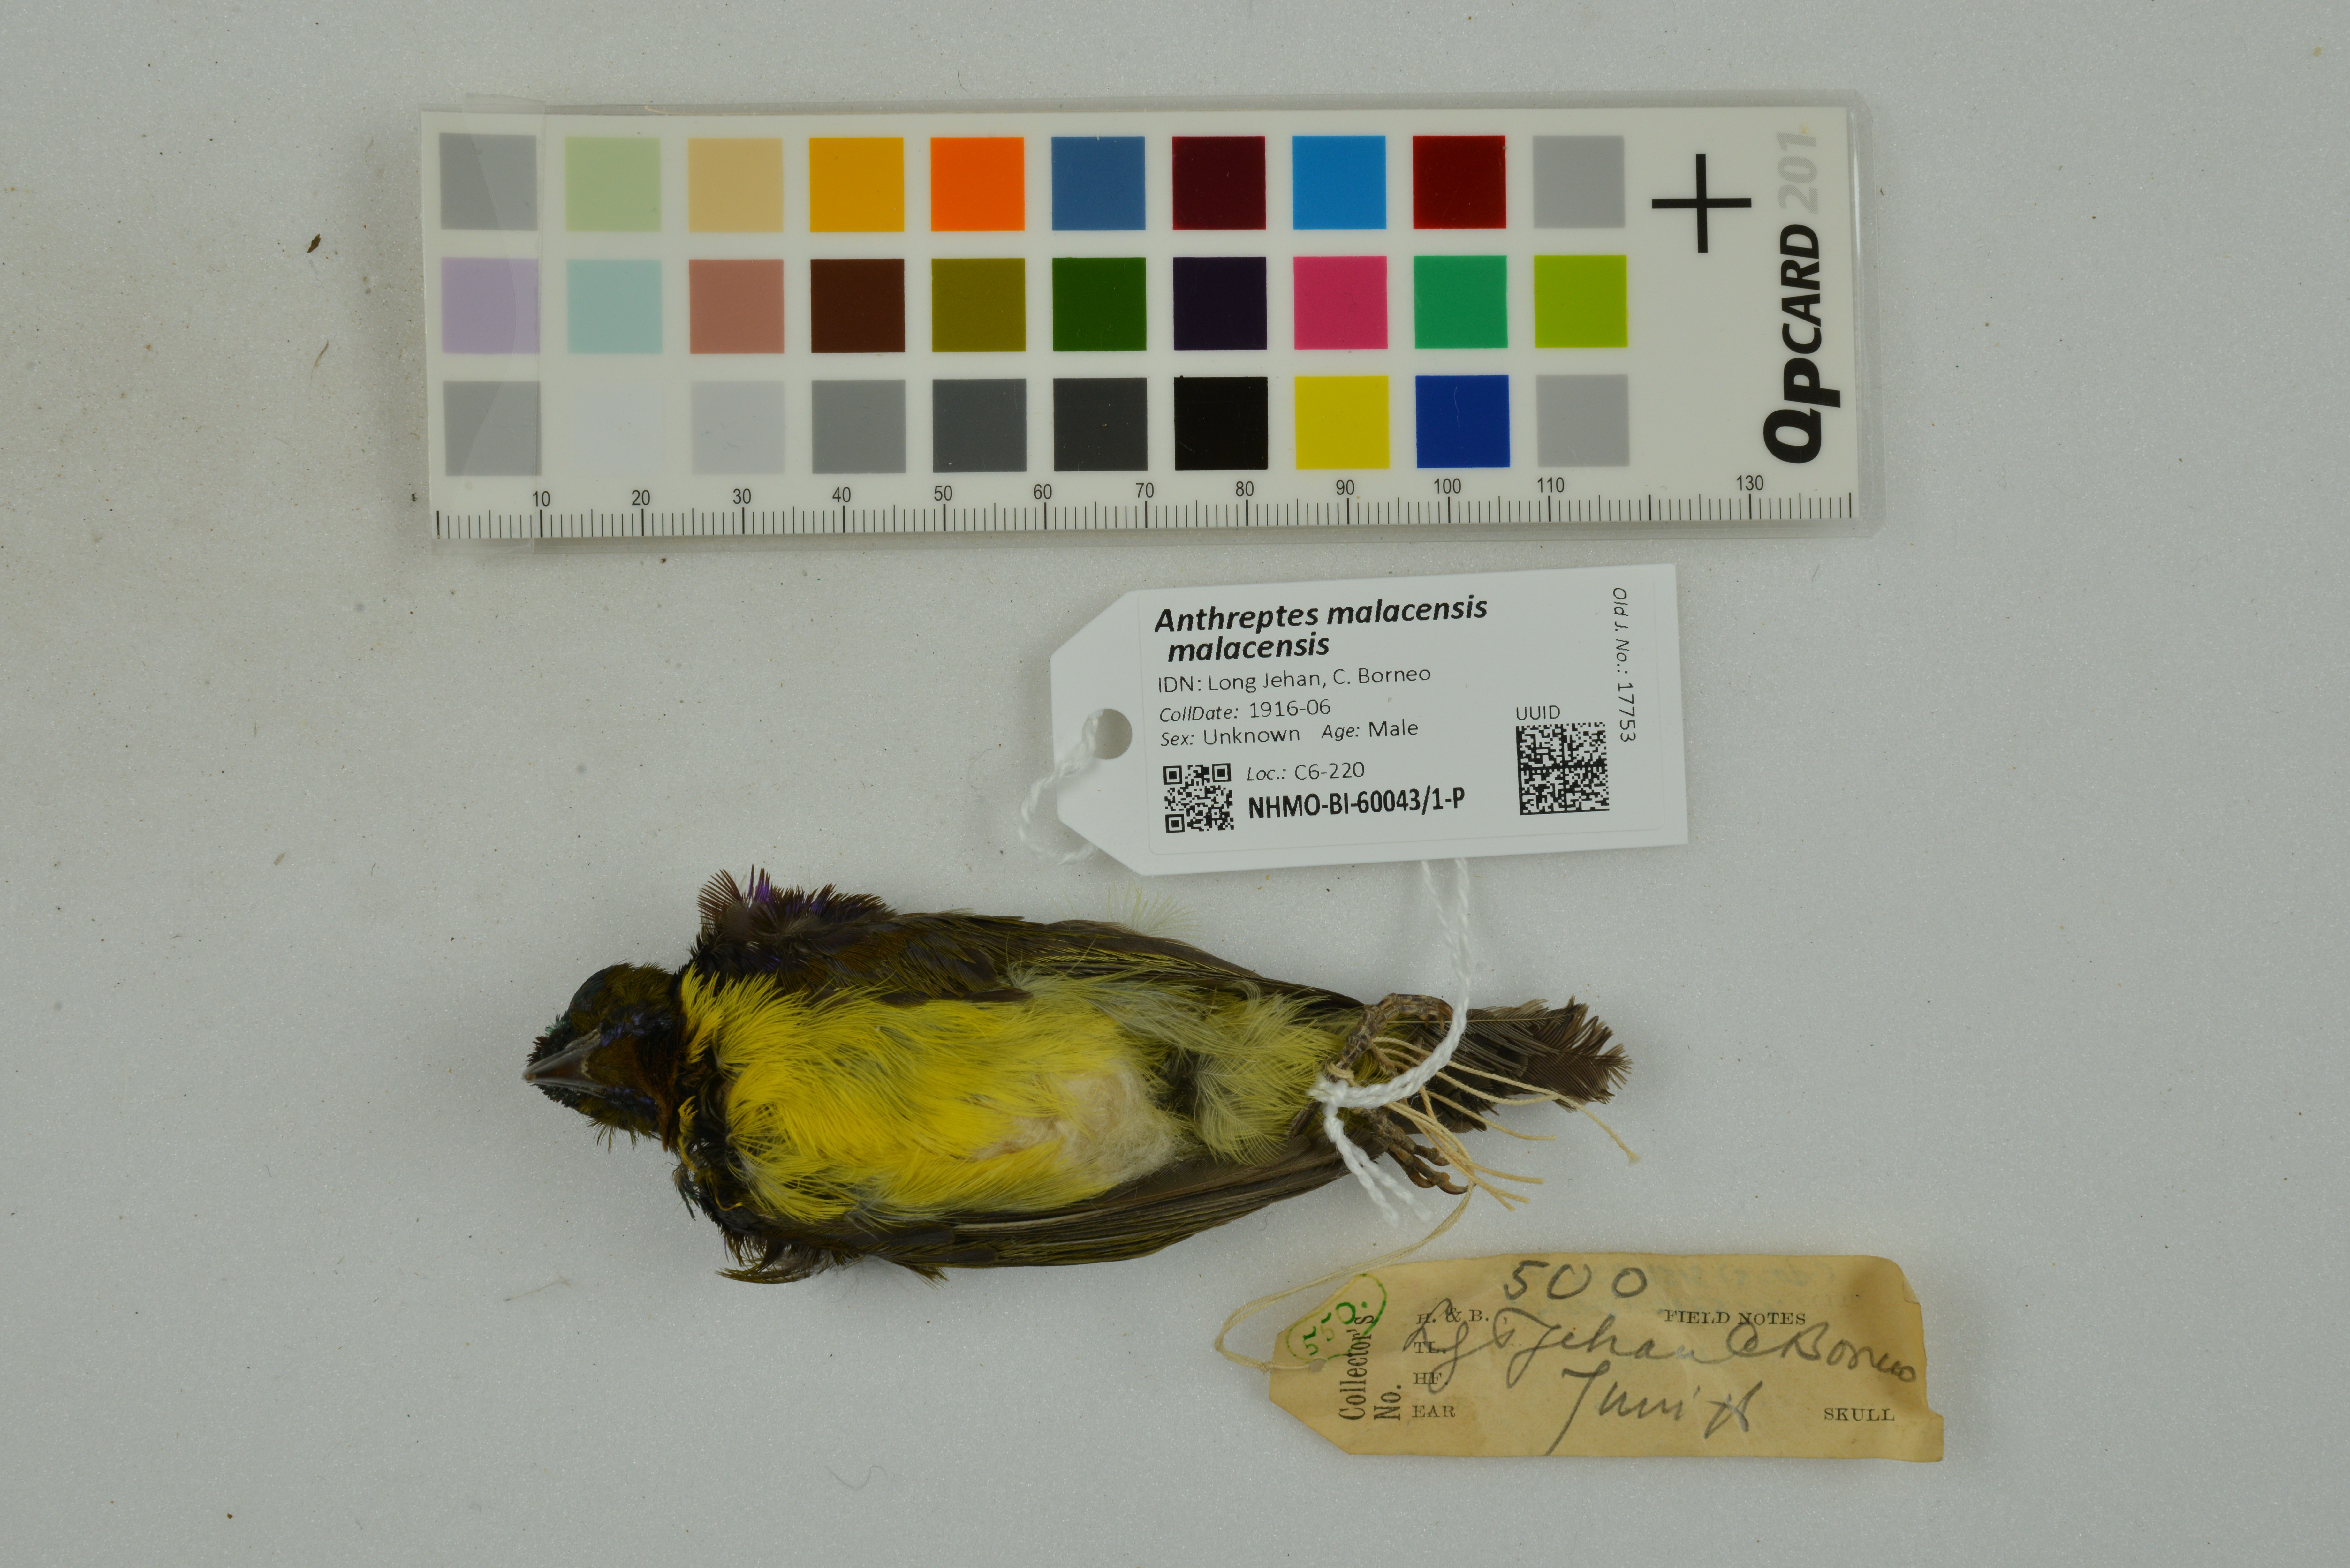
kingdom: Animalia
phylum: Chordata
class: Aves
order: Passeriformes
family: Nectariniidae
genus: Anthreptes
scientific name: Anthreptes malacensis
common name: Brown-throated sunbird
